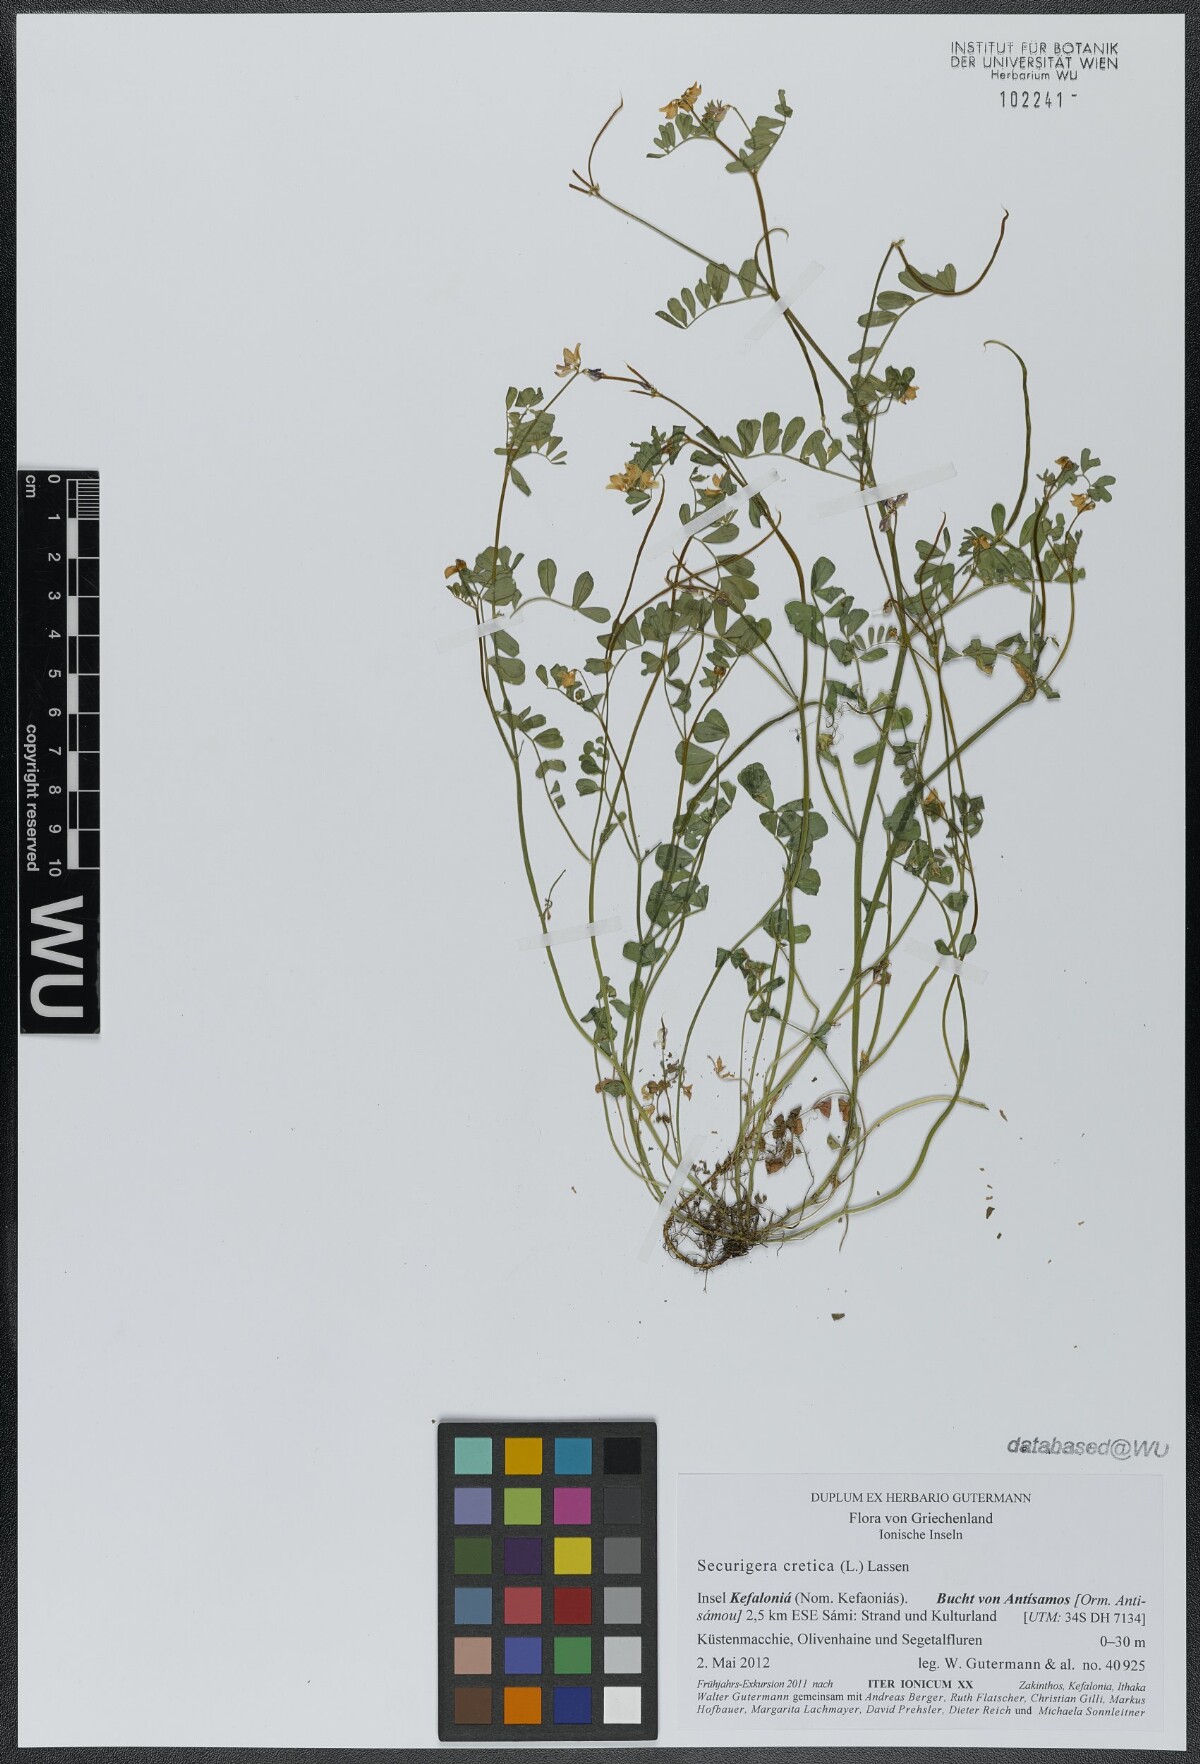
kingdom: Plantae
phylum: Tracheophyta
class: Magnoliopsida
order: Fabales
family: Fabaceae
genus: Coronilla
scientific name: Coronilla cretica
